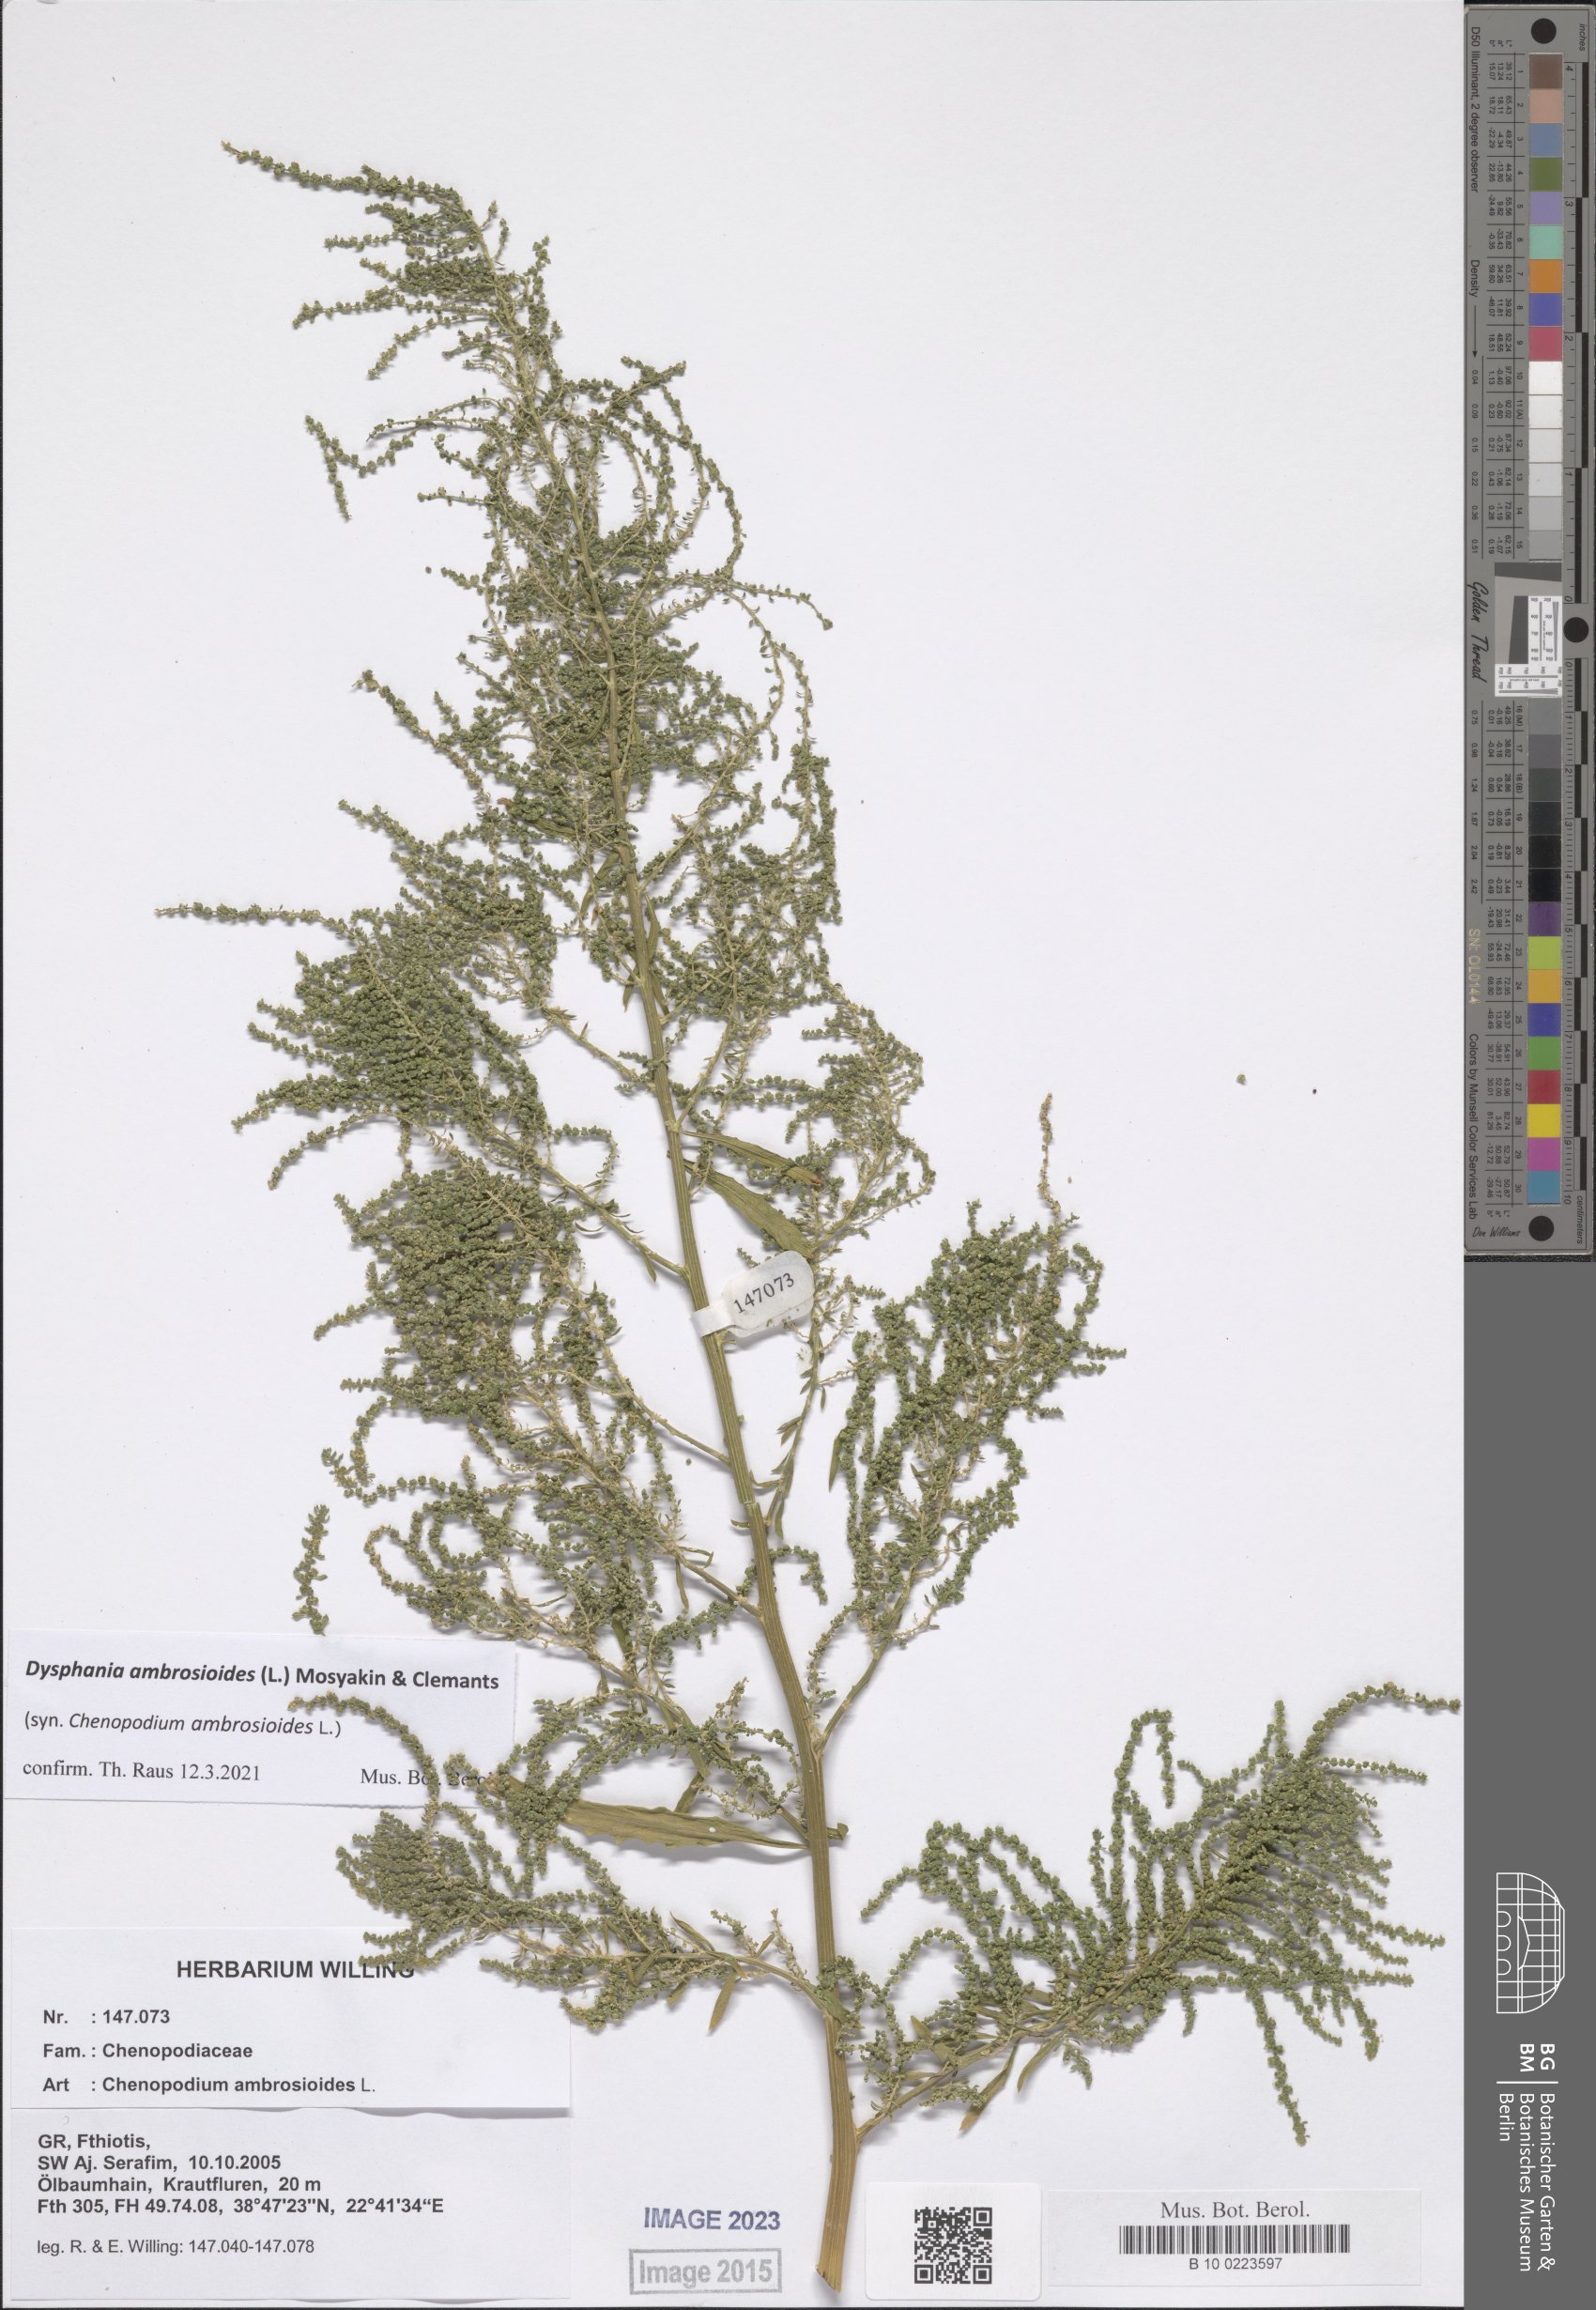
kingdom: Plantae
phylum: Tracheophyta
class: Magnoliopsida
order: Caryophyllales
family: Amaranthaceae
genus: Dysphania
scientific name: Dysphania ambrosioides
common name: Wormseed
